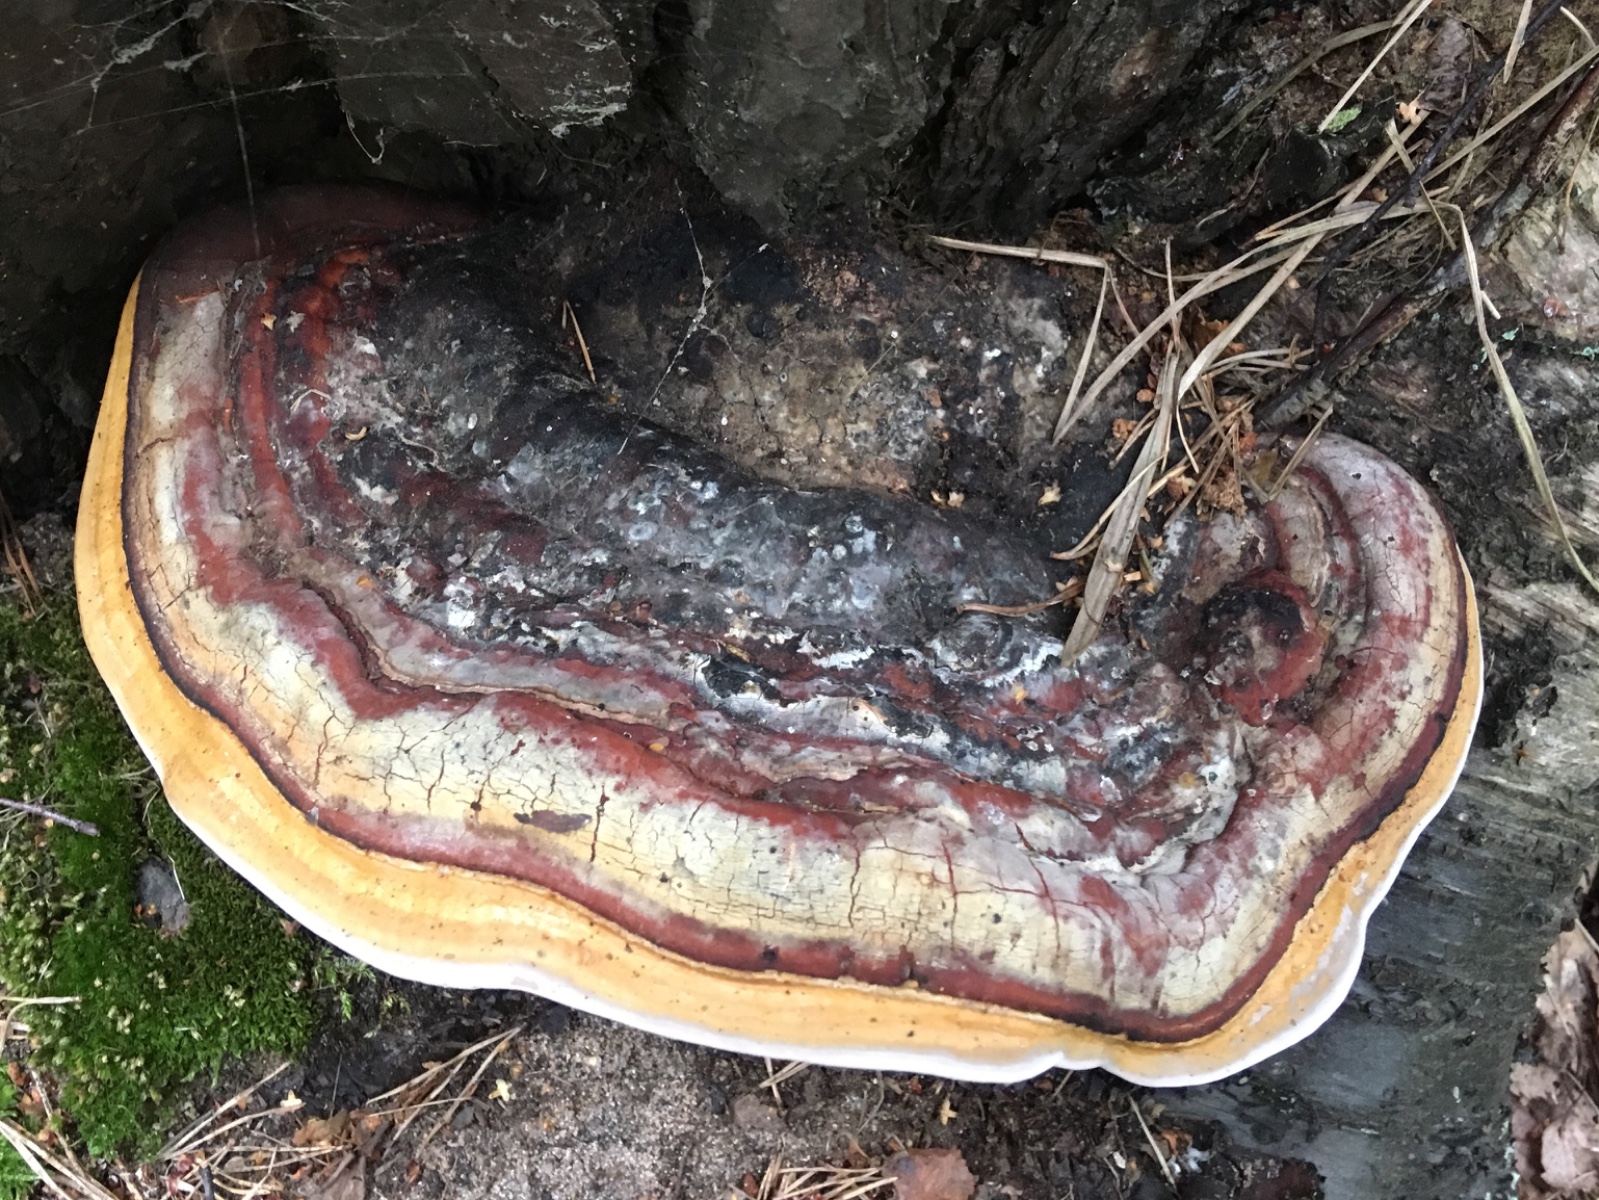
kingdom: Fungi
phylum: Basidiomycota
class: Agaricomycetes
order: Polyporales
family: Fomitopsidaceae
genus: Fomitopsis
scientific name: Fomitopsis pinicola
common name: randbæltet hovporesvamp
